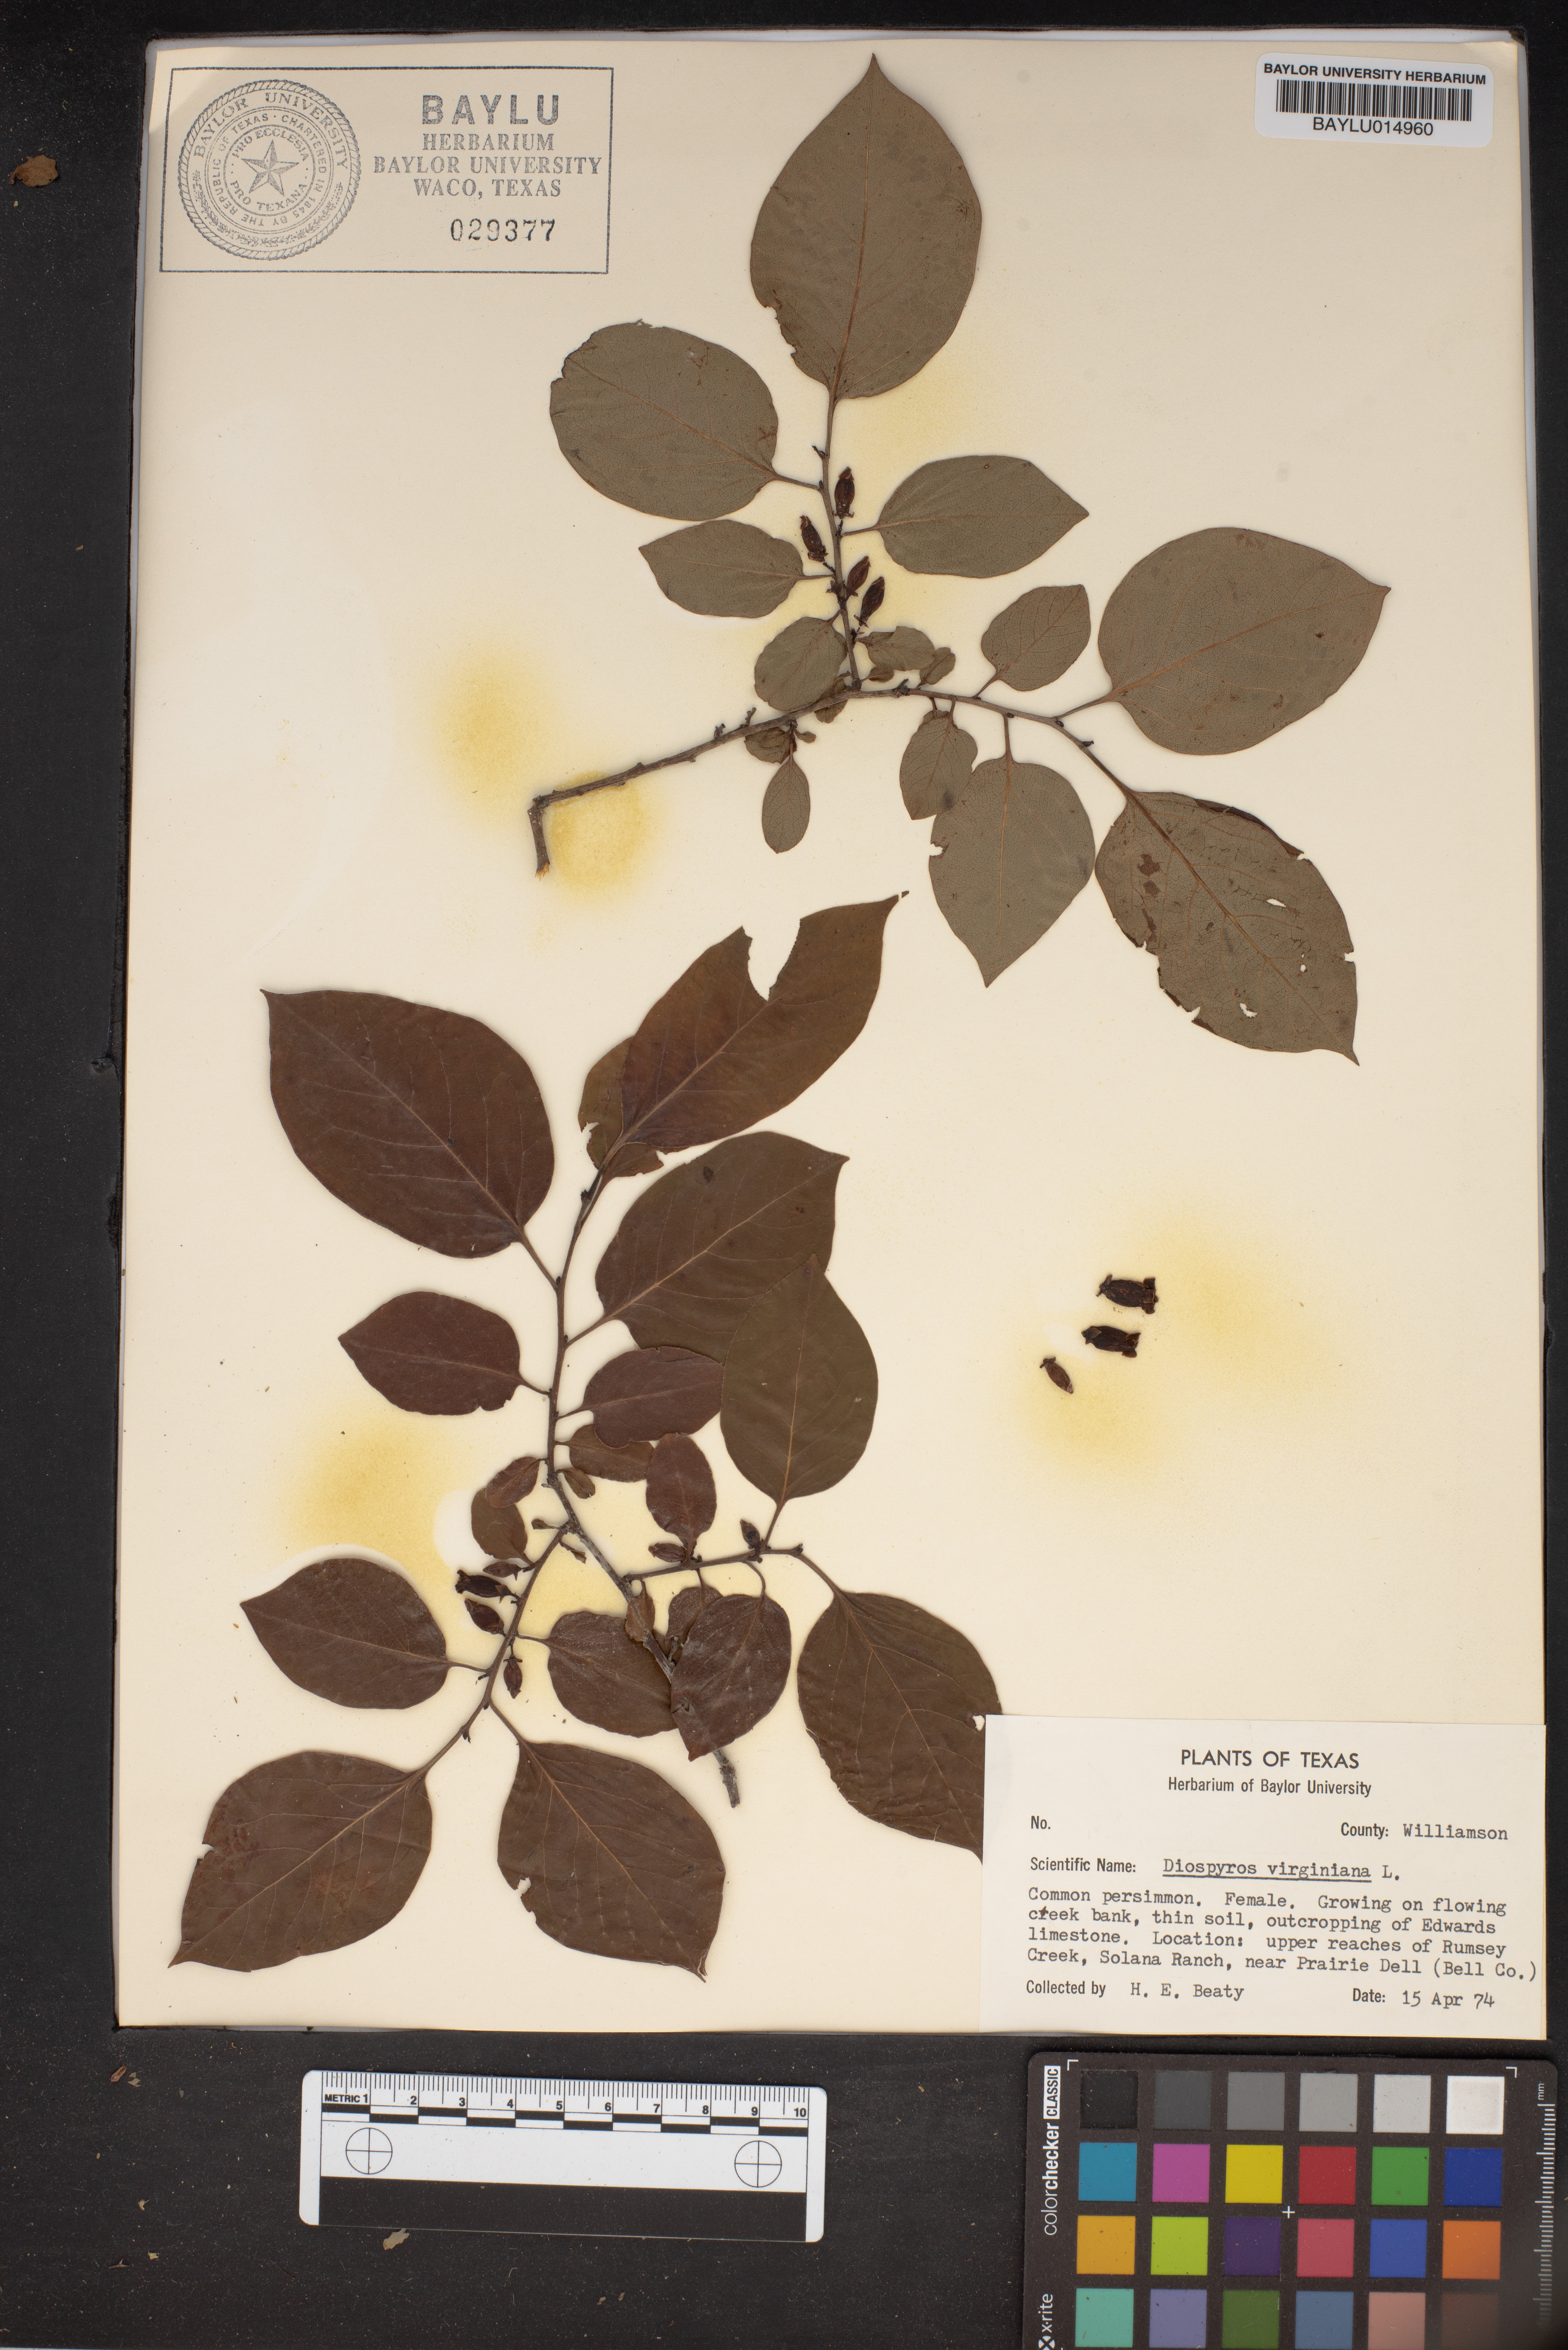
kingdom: Plantae
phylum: Tracheophyta
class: Magnoliopsida
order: Ericales
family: Ebenaceae
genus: Diospyros
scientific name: Diospyros virginiana
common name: Persimmon
